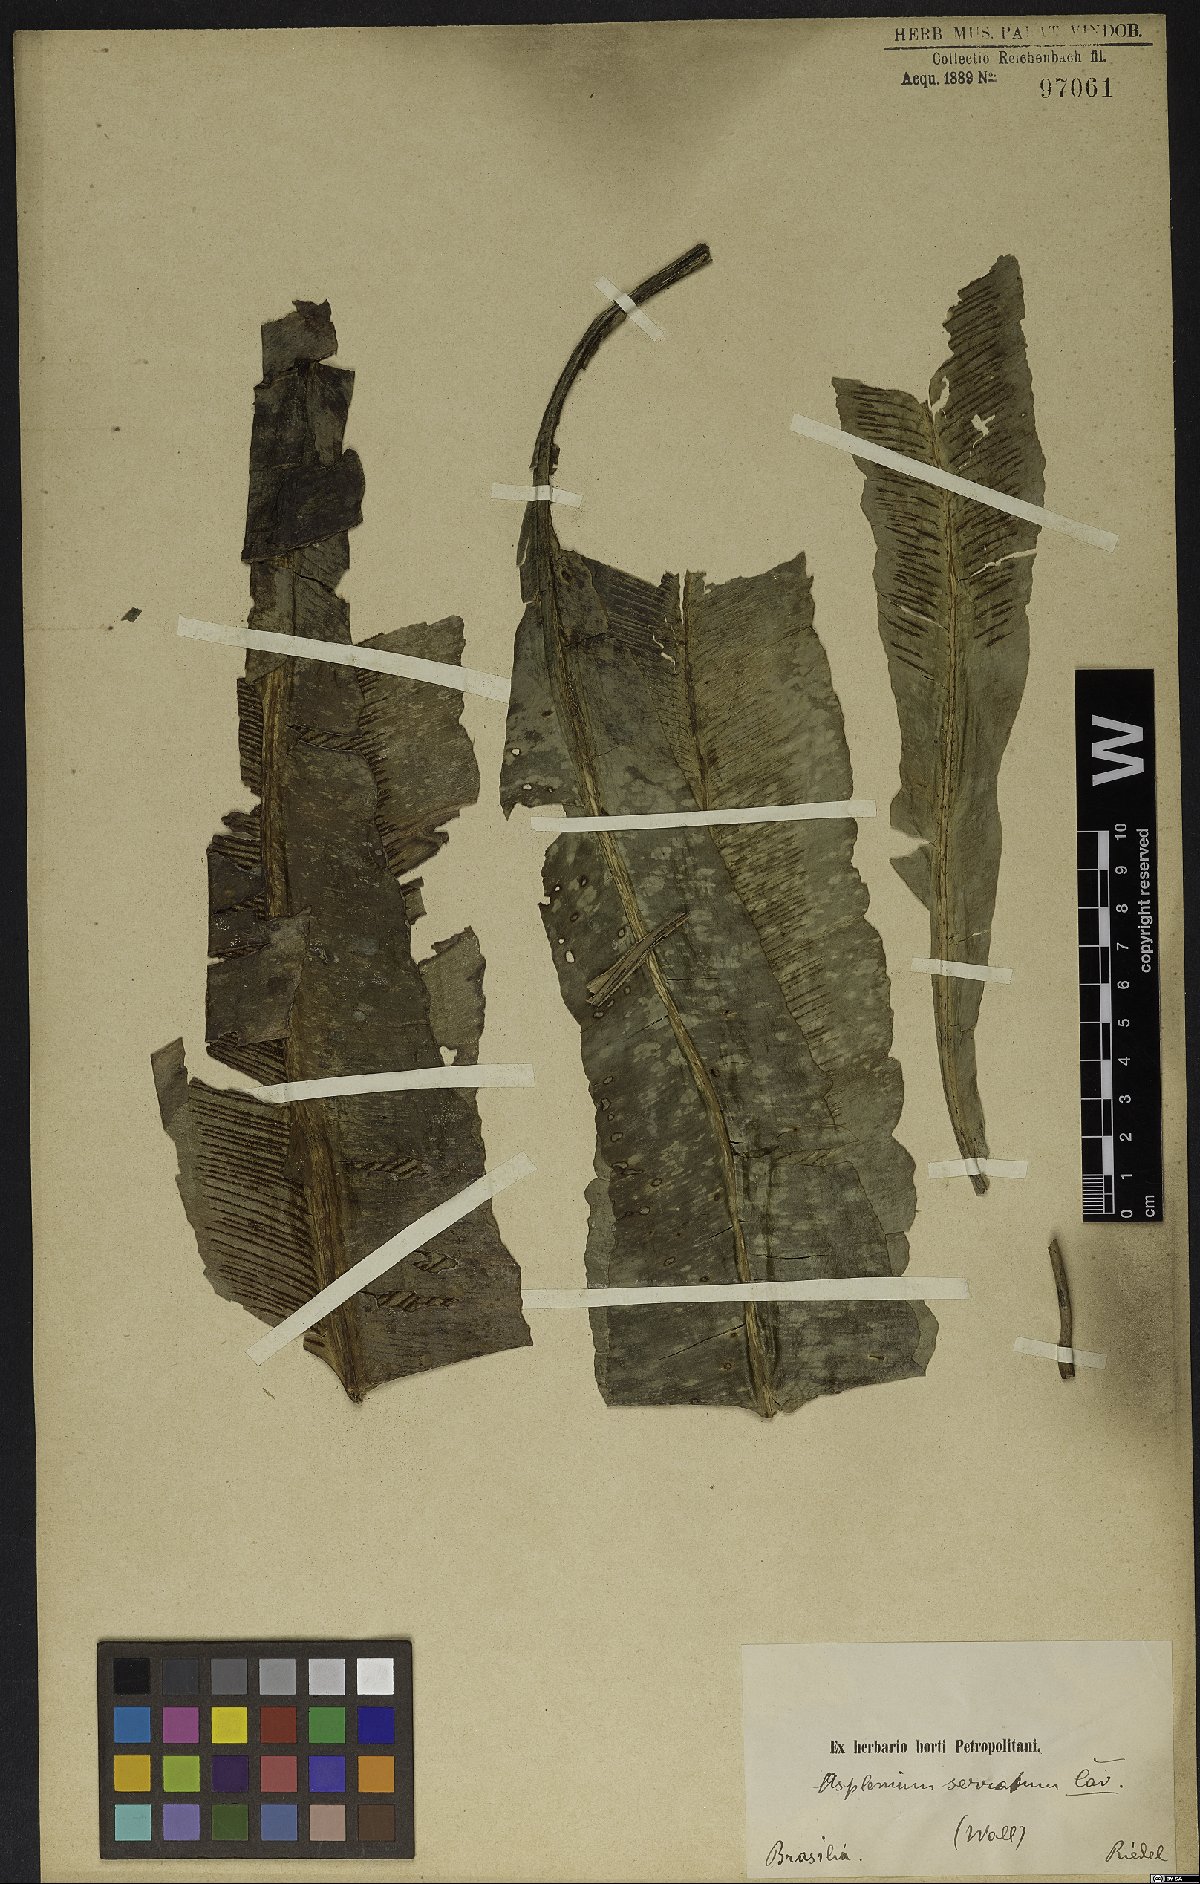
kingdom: Plantae
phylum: Tracheophyta
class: Polypodiopsida
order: Polypodiales
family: Aspleniaceae
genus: Asplenium
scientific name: Asplenium serratum
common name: Wild birdnest fern
